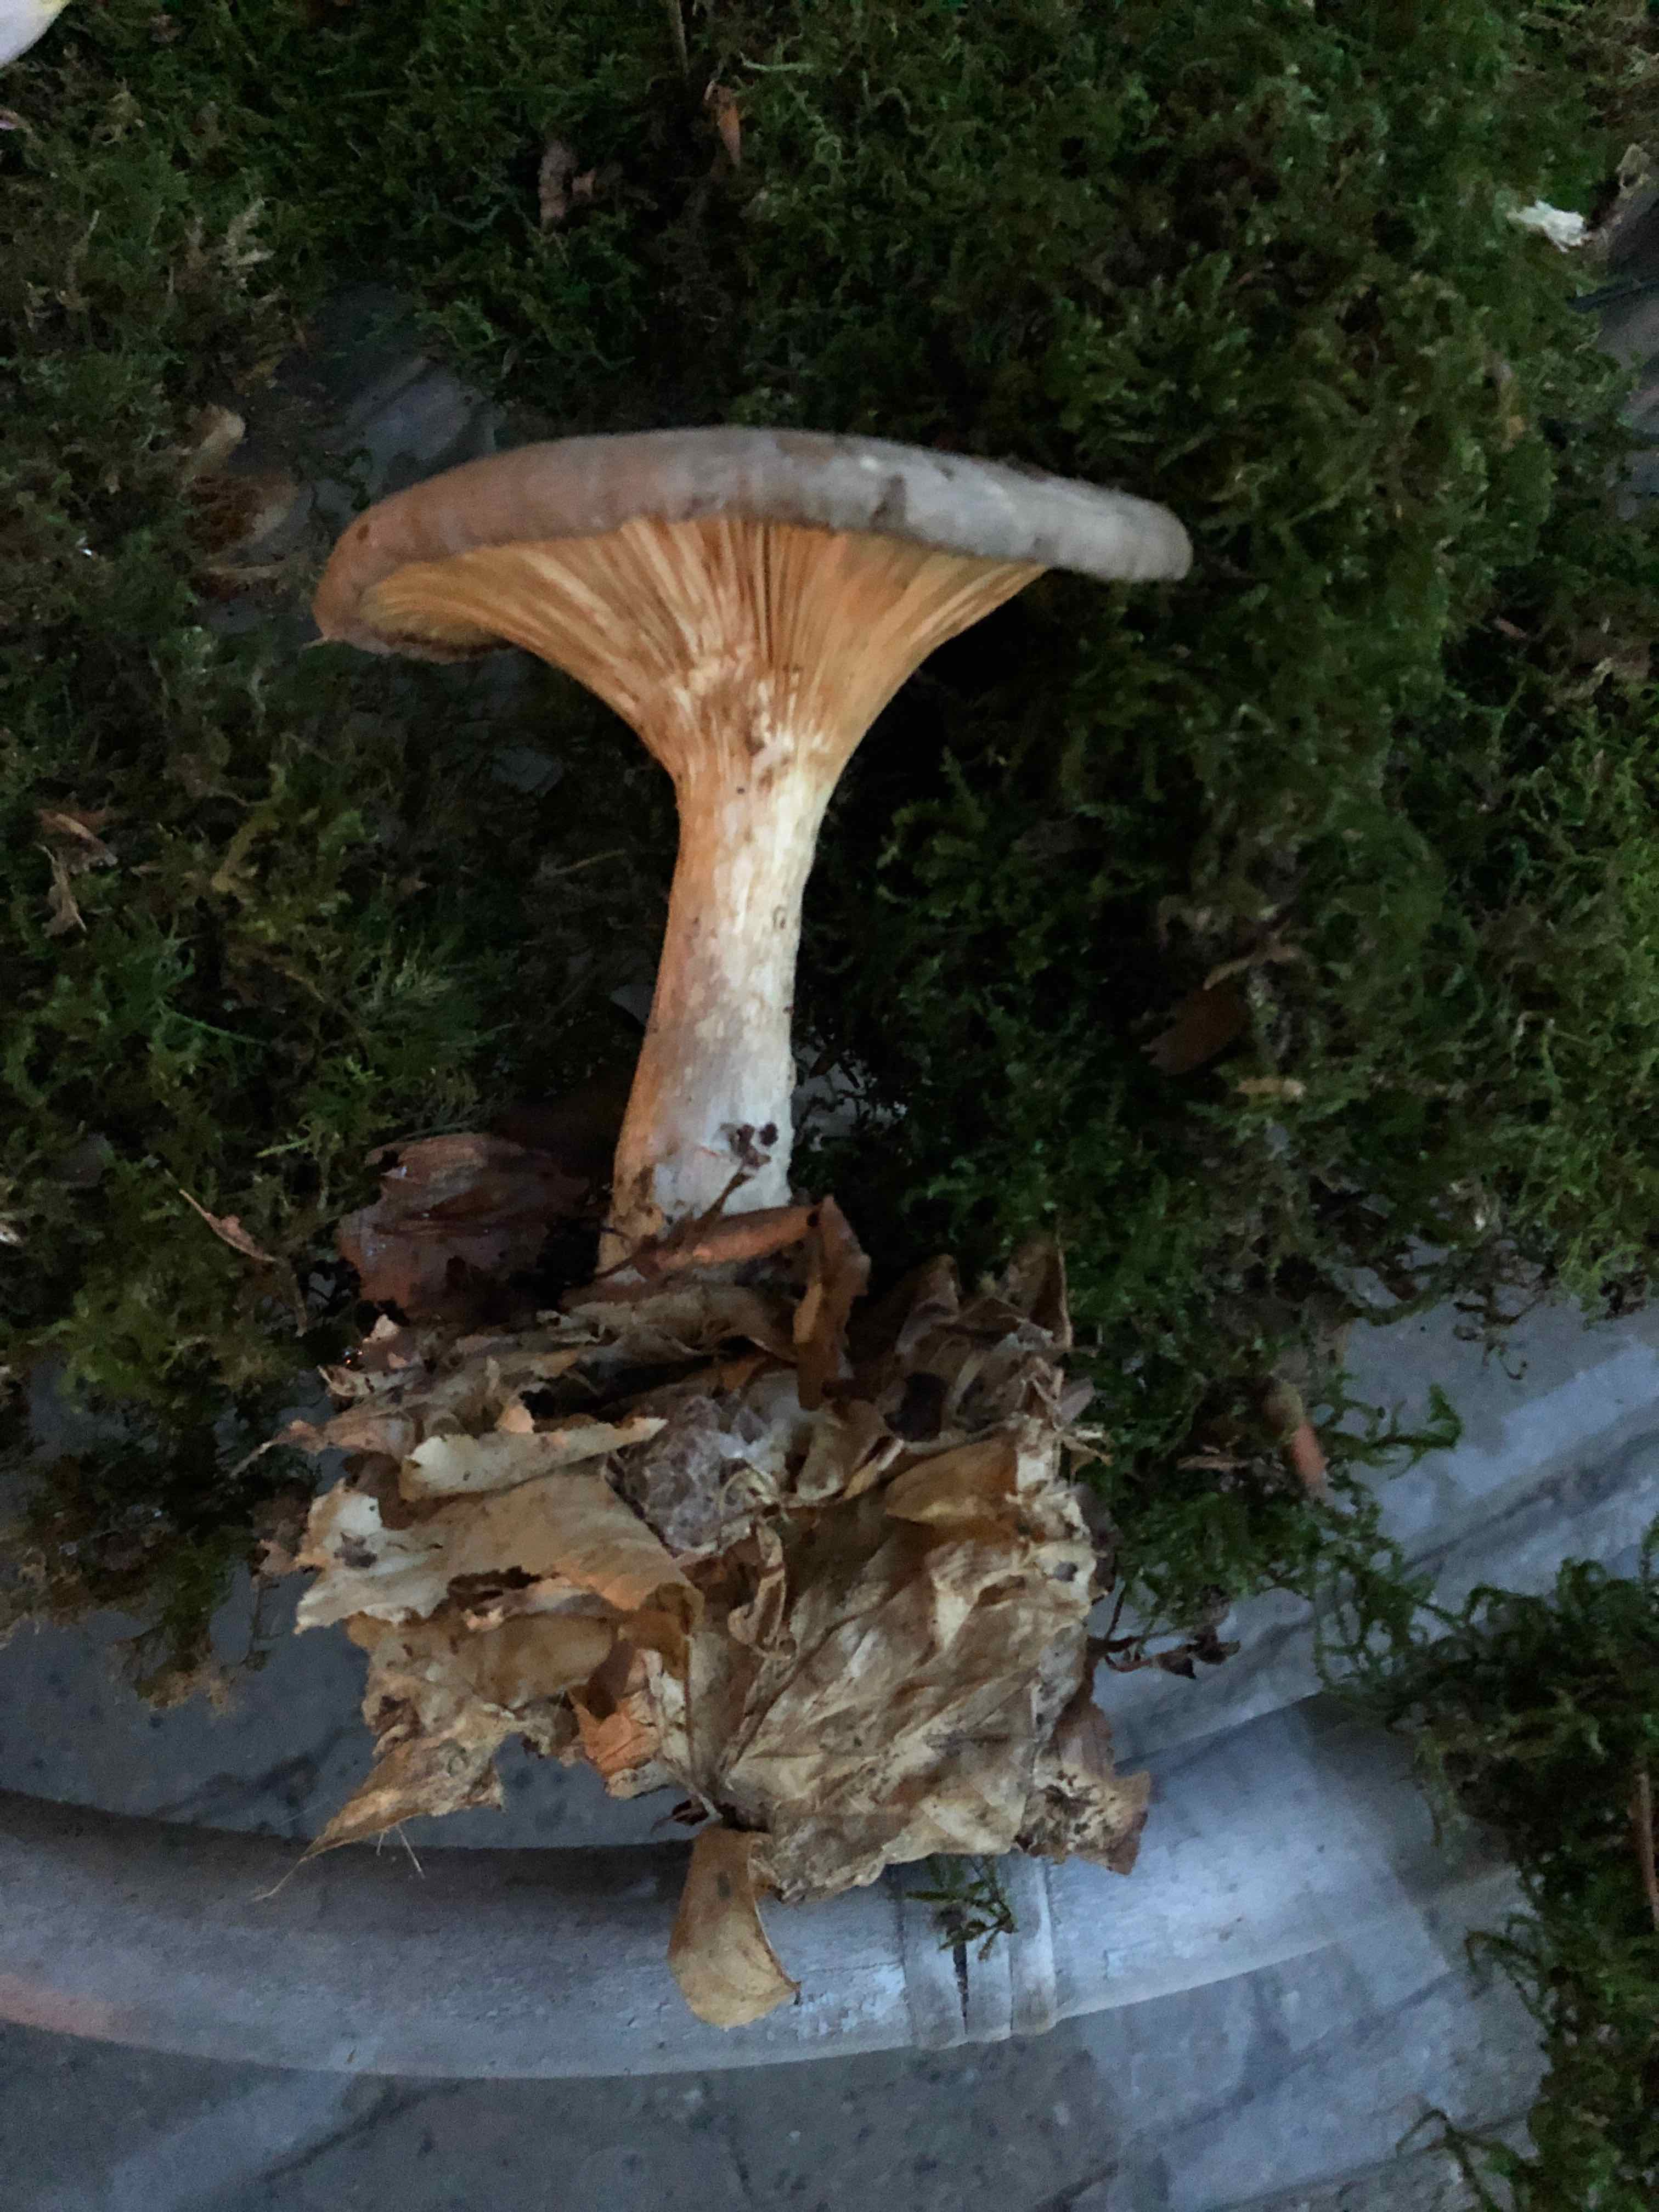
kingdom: Fungi
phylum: Basidiomycota
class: Agaricomycetes
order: Agaricales
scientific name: Agaricales
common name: champignonordenen
